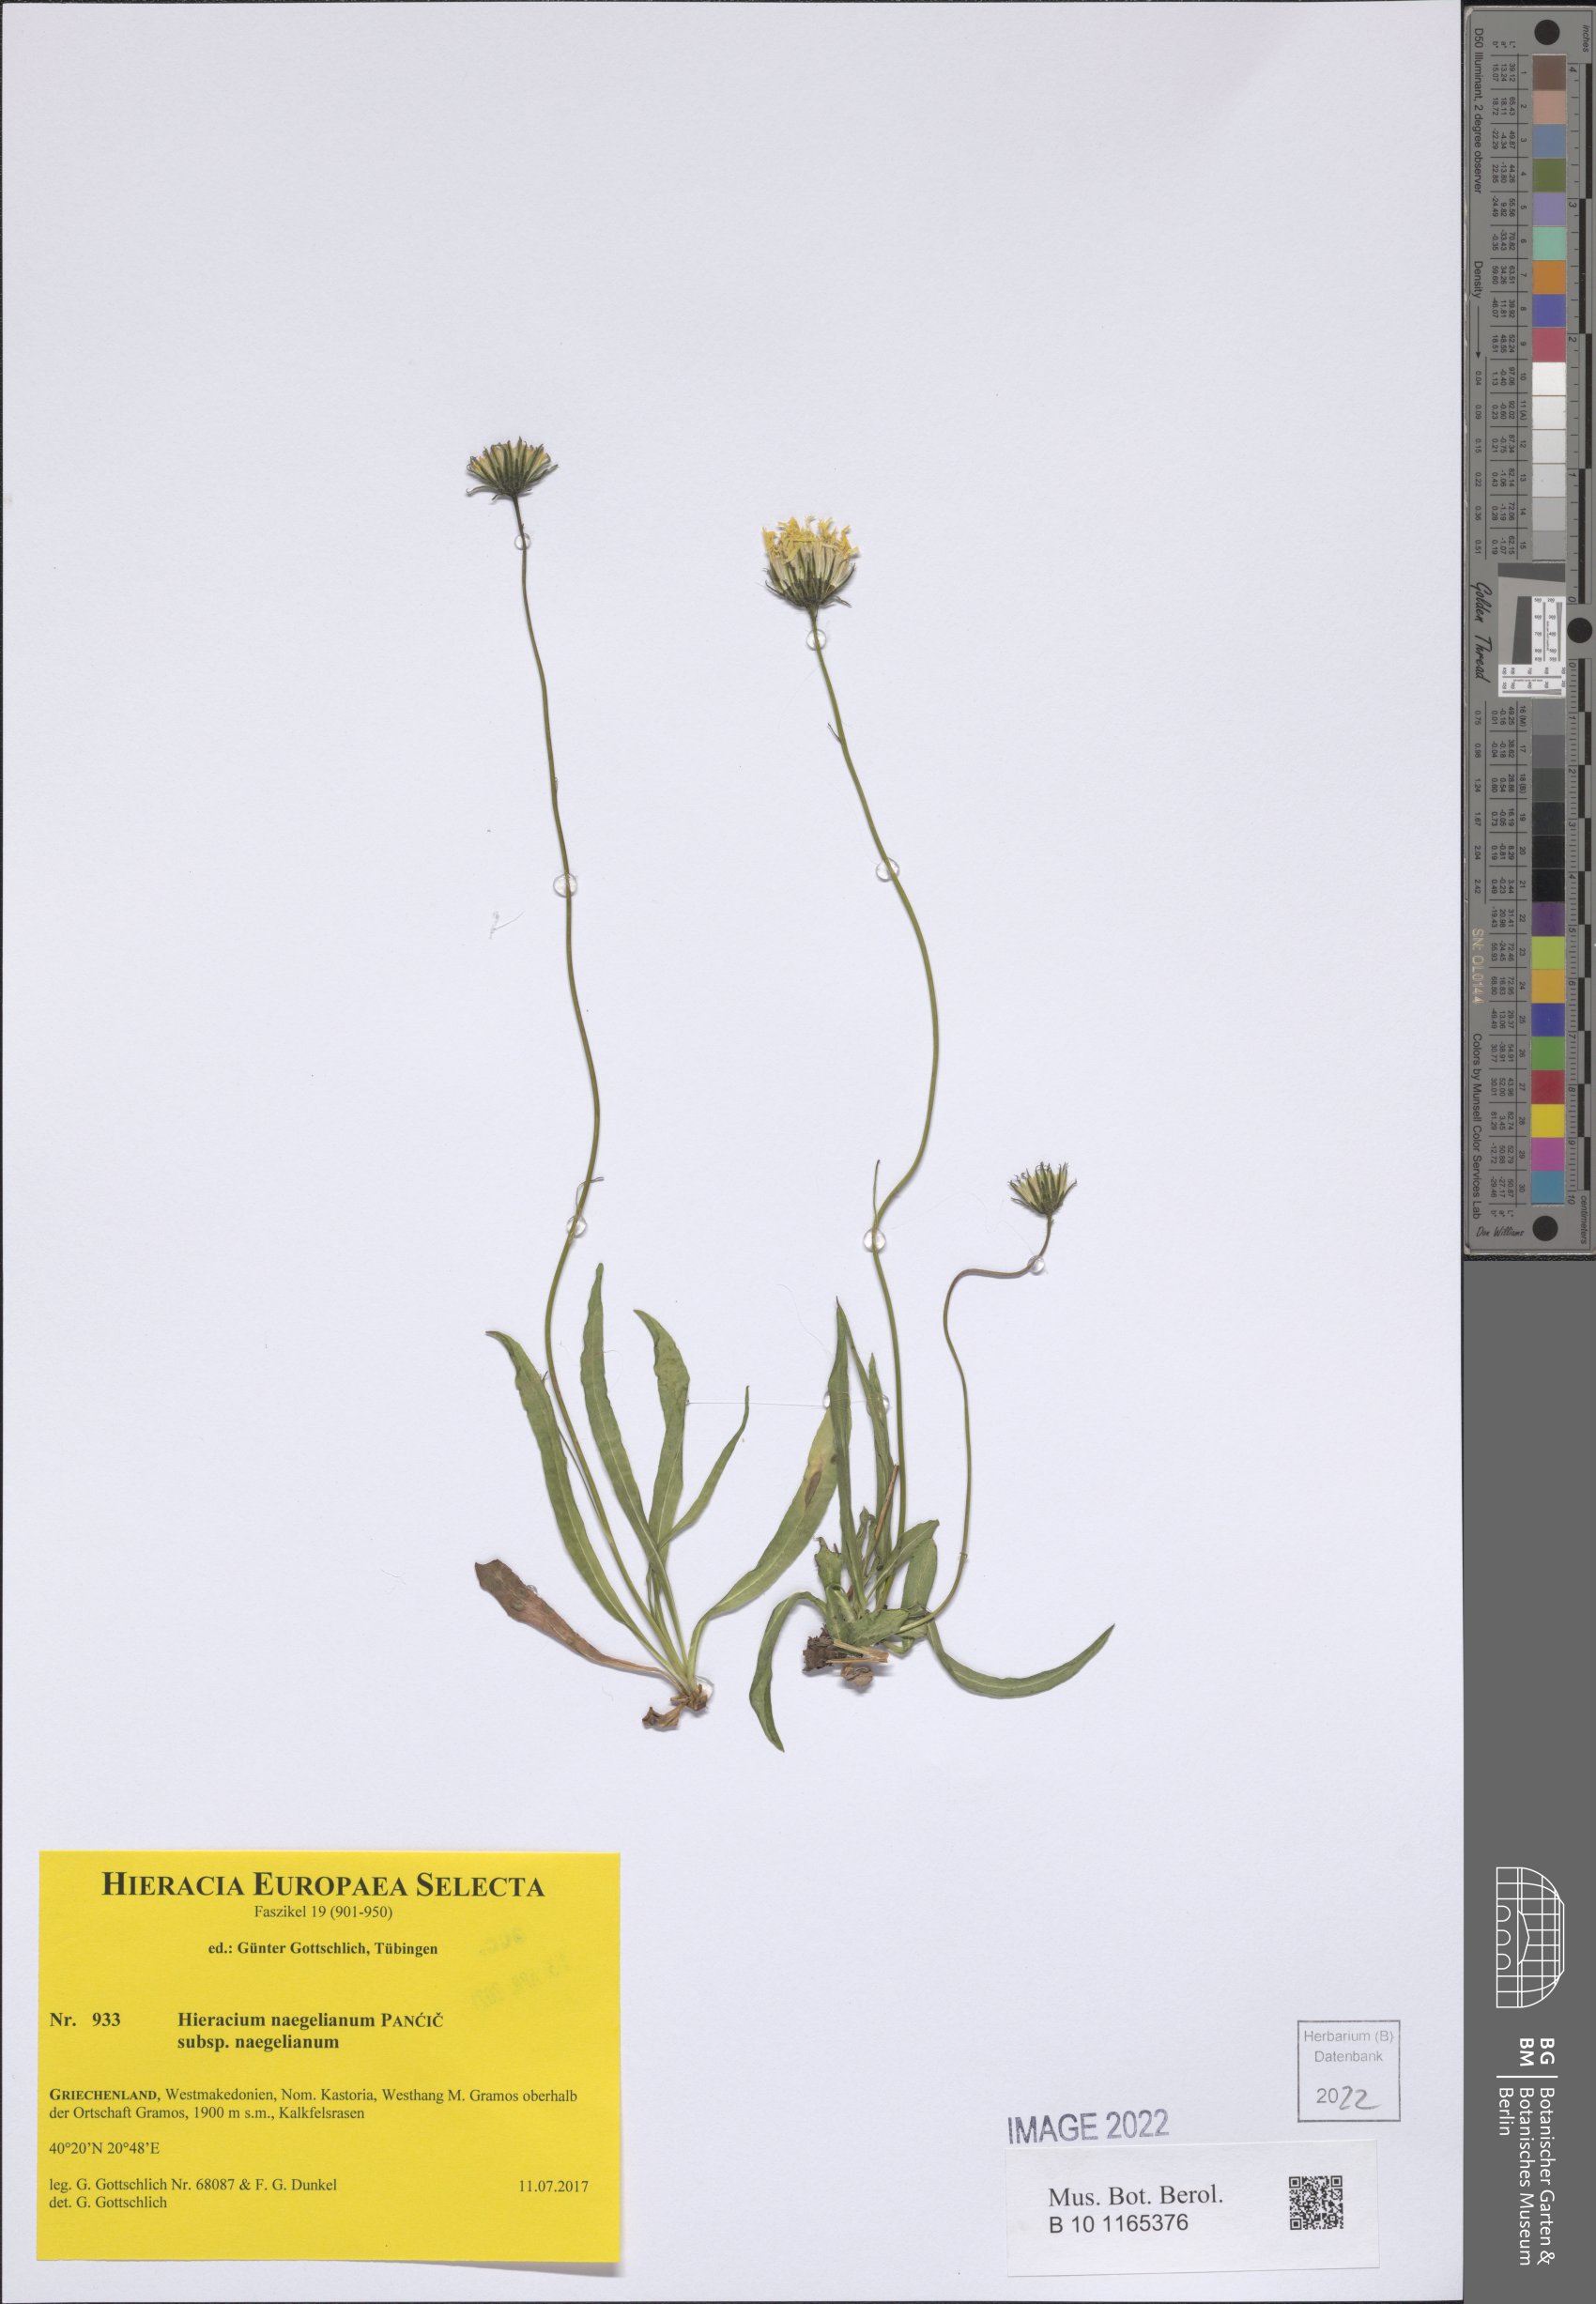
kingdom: Plantae
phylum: Tracheophyta
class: Magnoliopsida
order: Asterales
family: Asteraceae
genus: Hieracium
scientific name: Hieracium naegelianum
